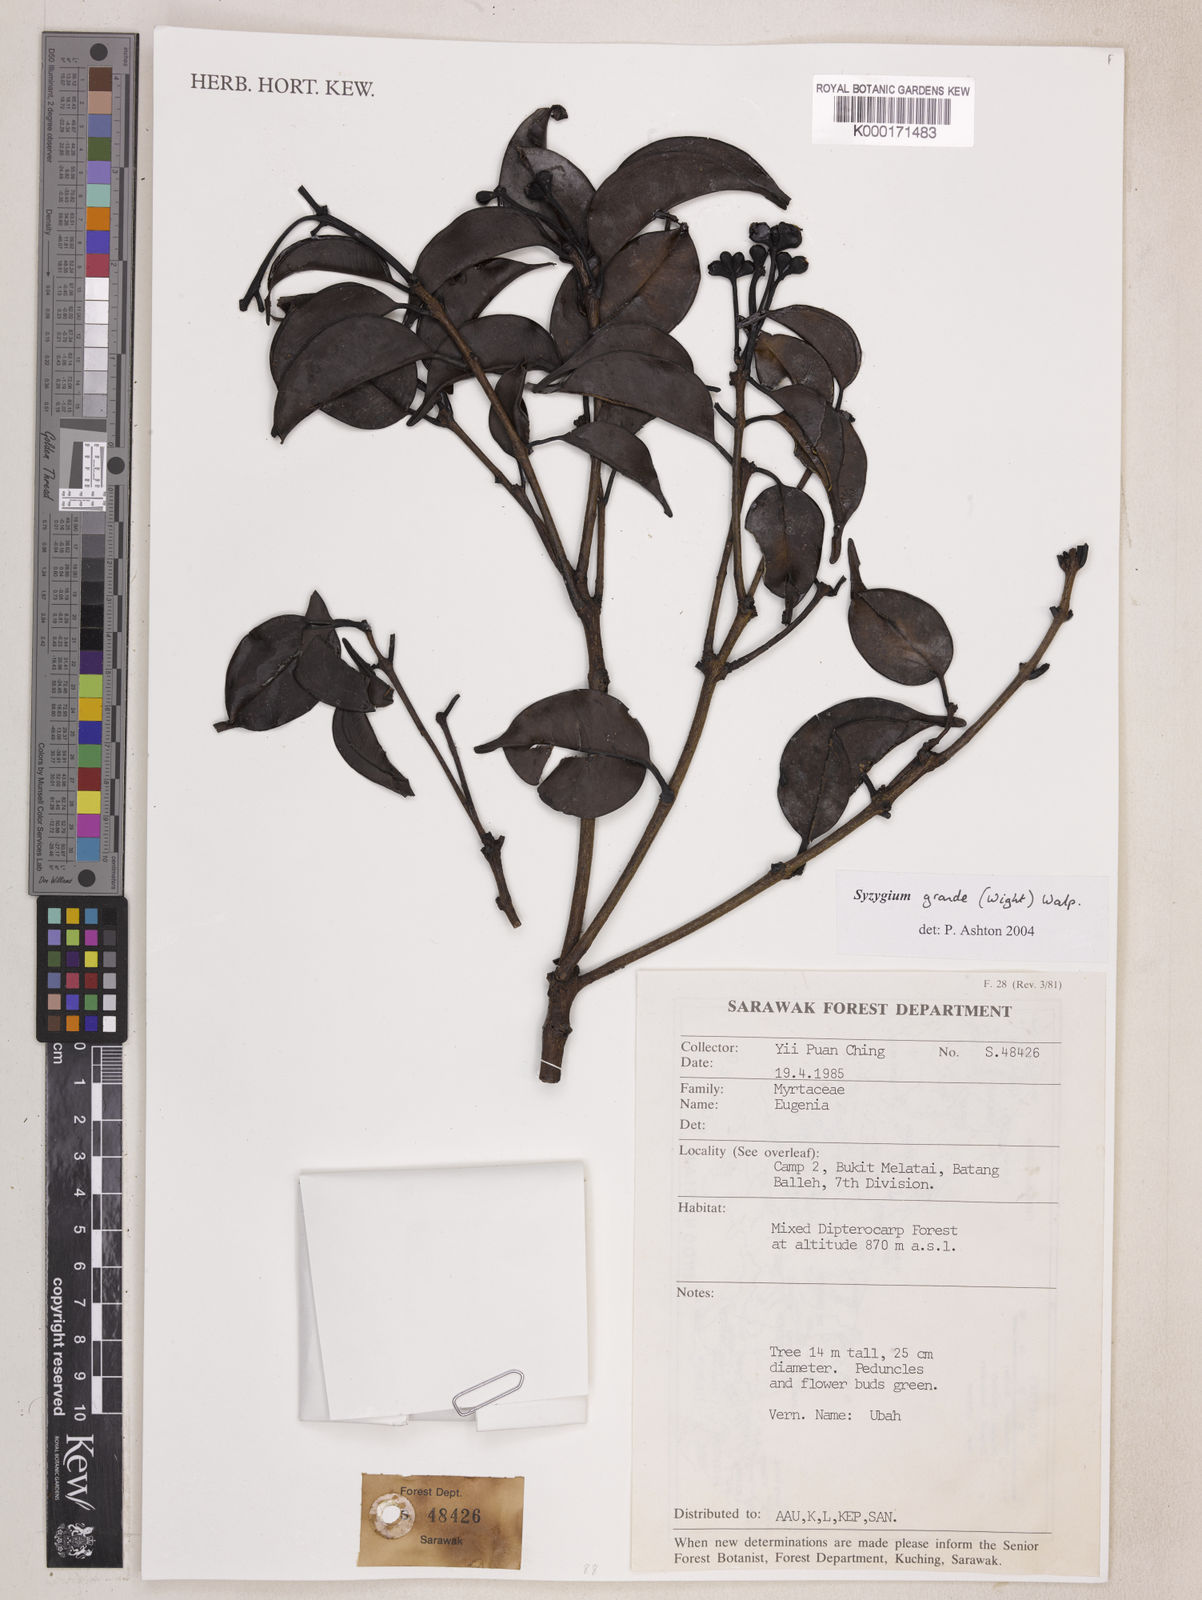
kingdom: Plantae
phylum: Tracheophyta
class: Magnoliopsida
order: Myrtales
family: Myrtaceae
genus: Syzygium
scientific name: Syzygium grande
